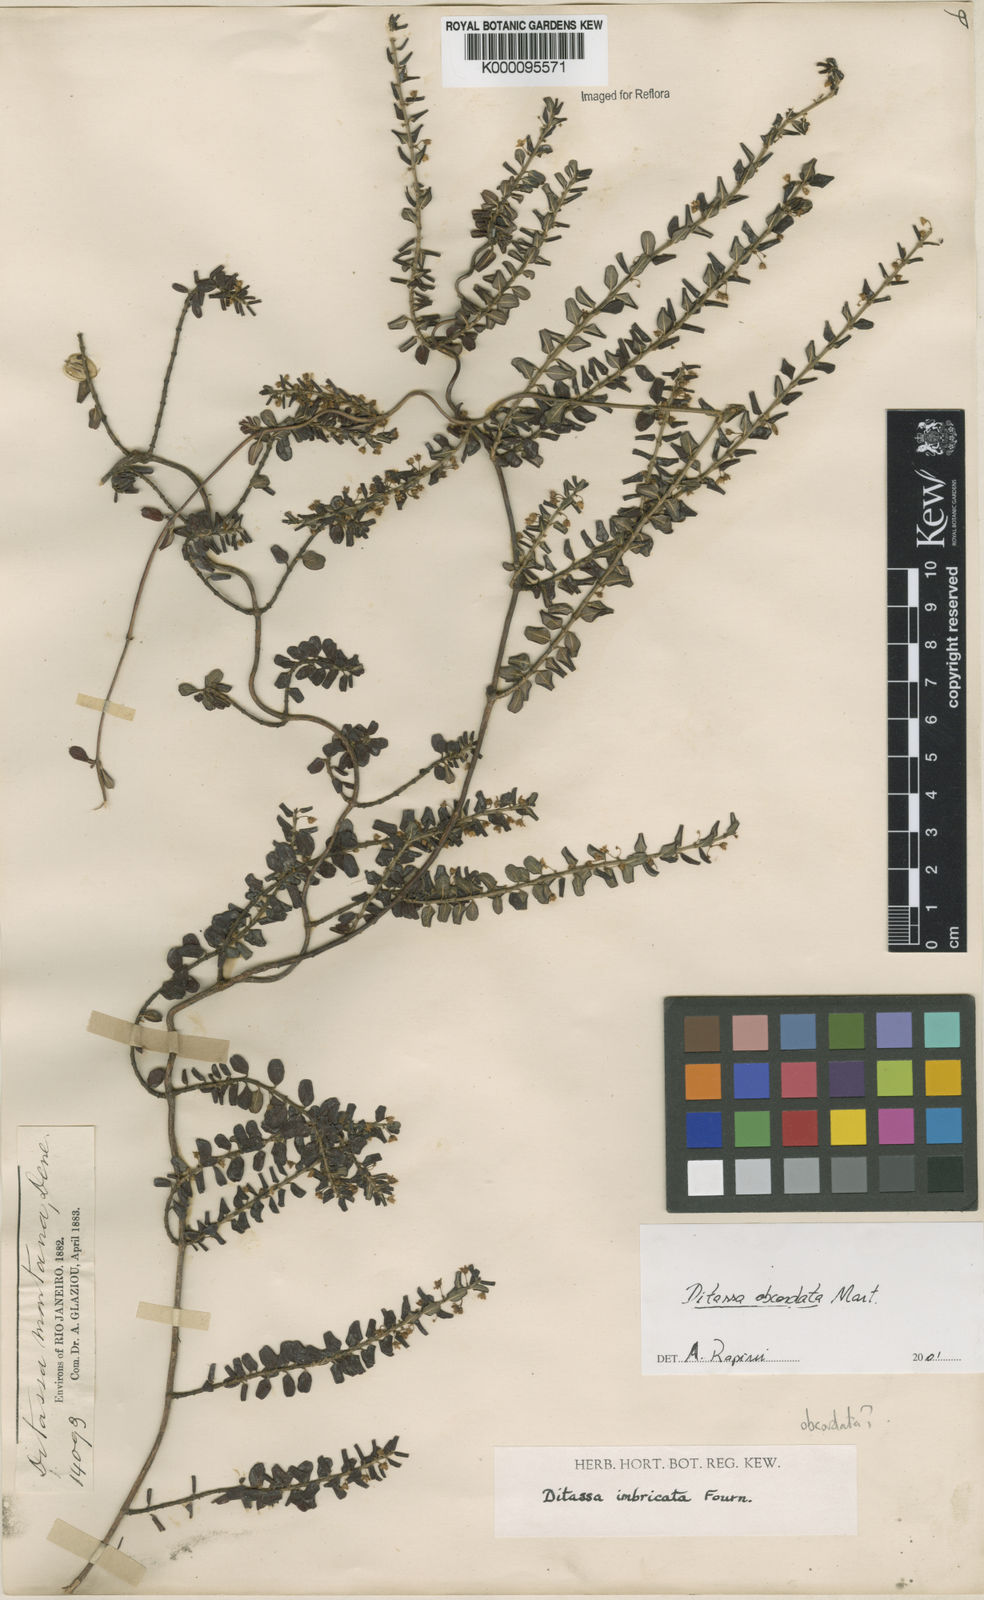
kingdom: Plantae
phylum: Tracheophyta
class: Magnoliopsida
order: Gentianales
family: Apocynaceae
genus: Ditassa
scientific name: Ditassa obcordata
